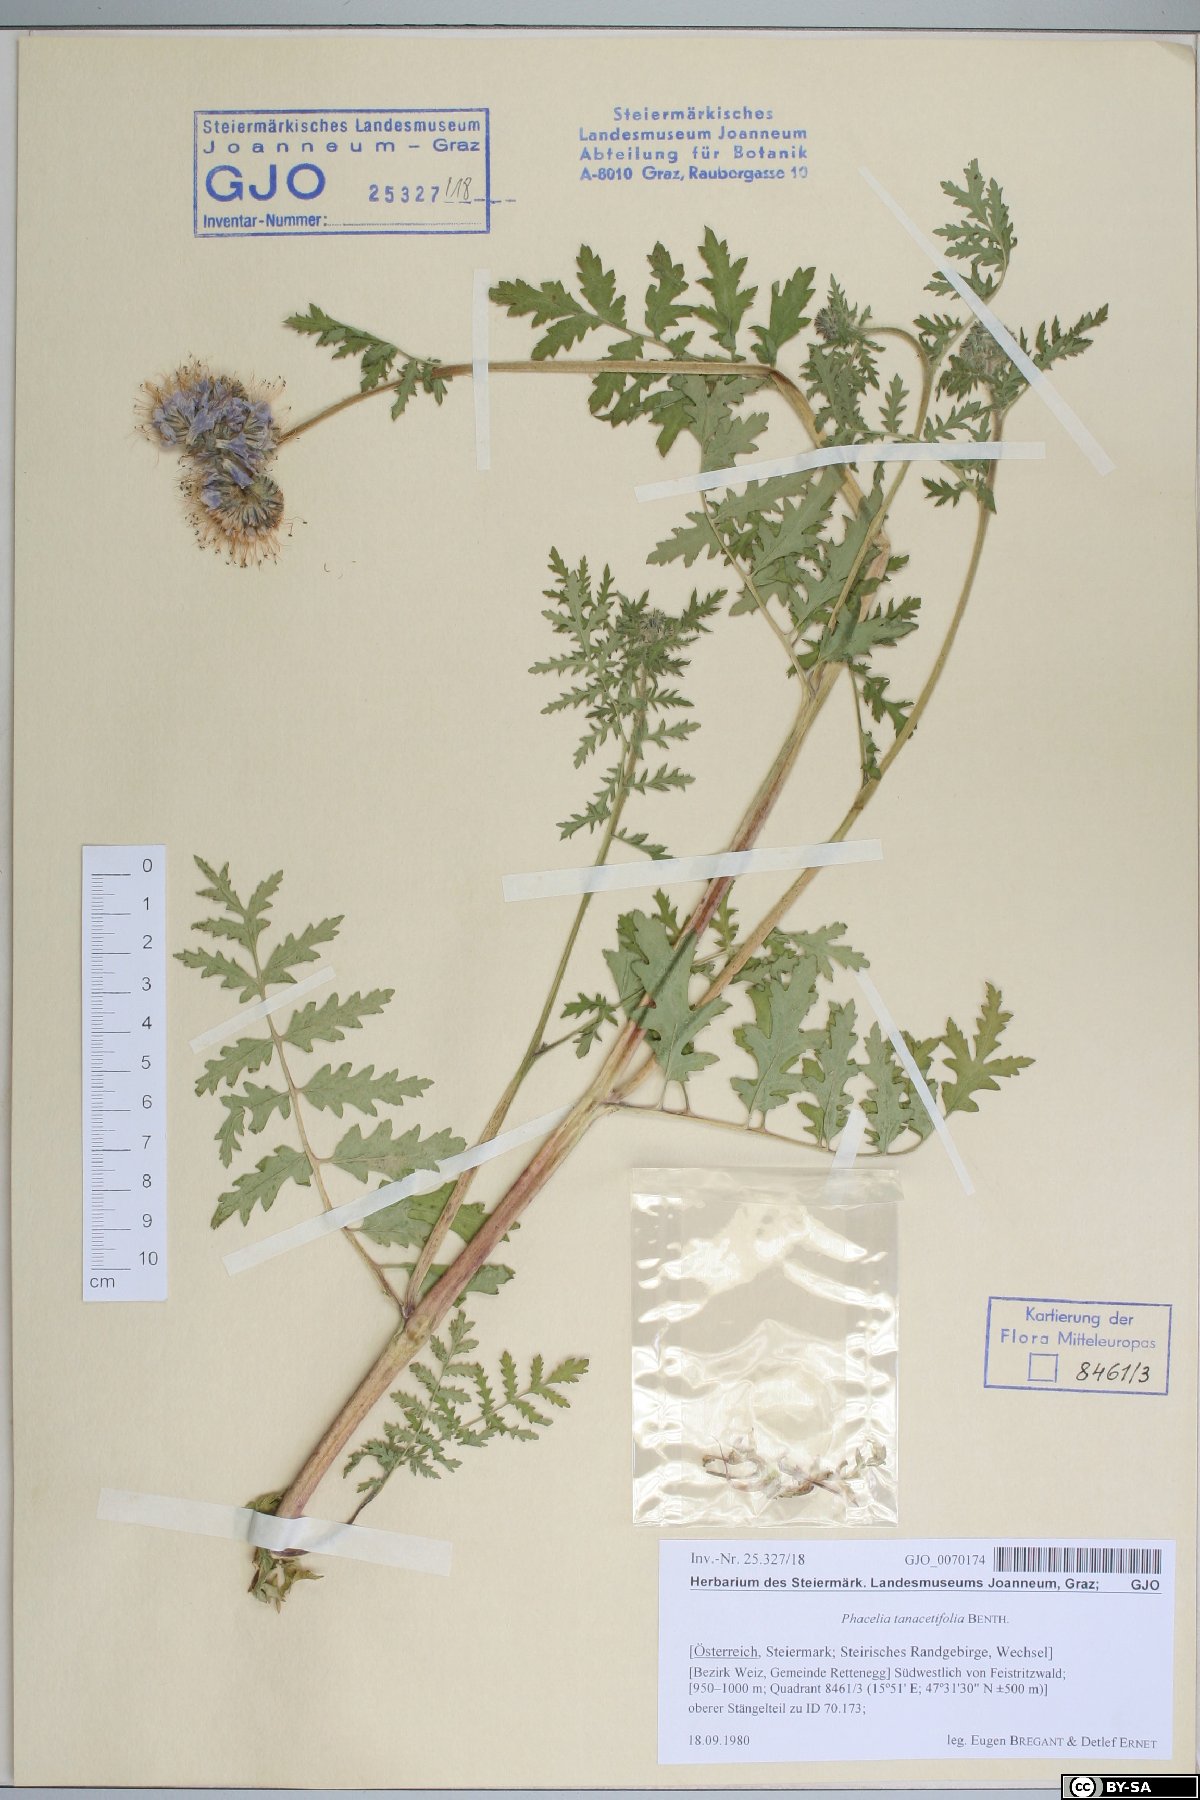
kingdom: Plantae
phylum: Tracheophyta
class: Magnoliopsida
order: Boraginales
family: Hydrophyllaceae
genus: Phacelia
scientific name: Phacelia tanacetifolia
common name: Phacelia
